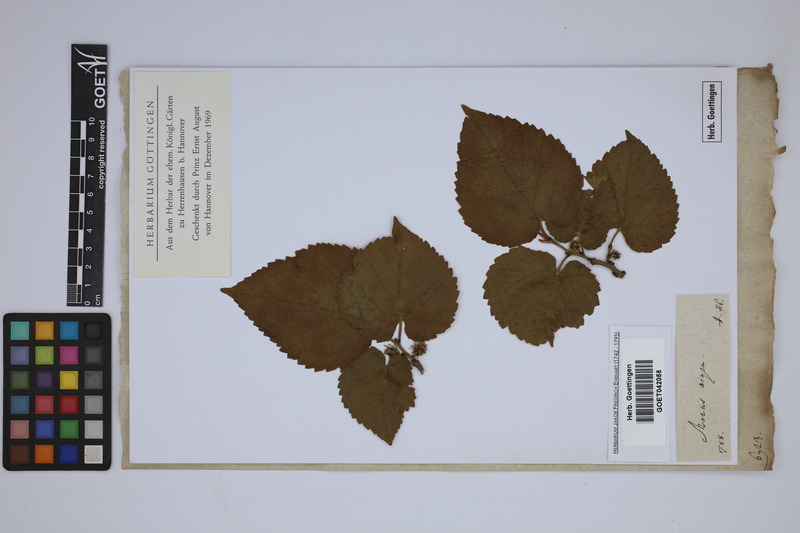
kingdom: Plantae
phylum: Tracheophyta
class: Magnoliopsida
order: Rosales
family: Moraceae
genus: Morus
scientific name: Morus nigra
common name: Black mulberry
